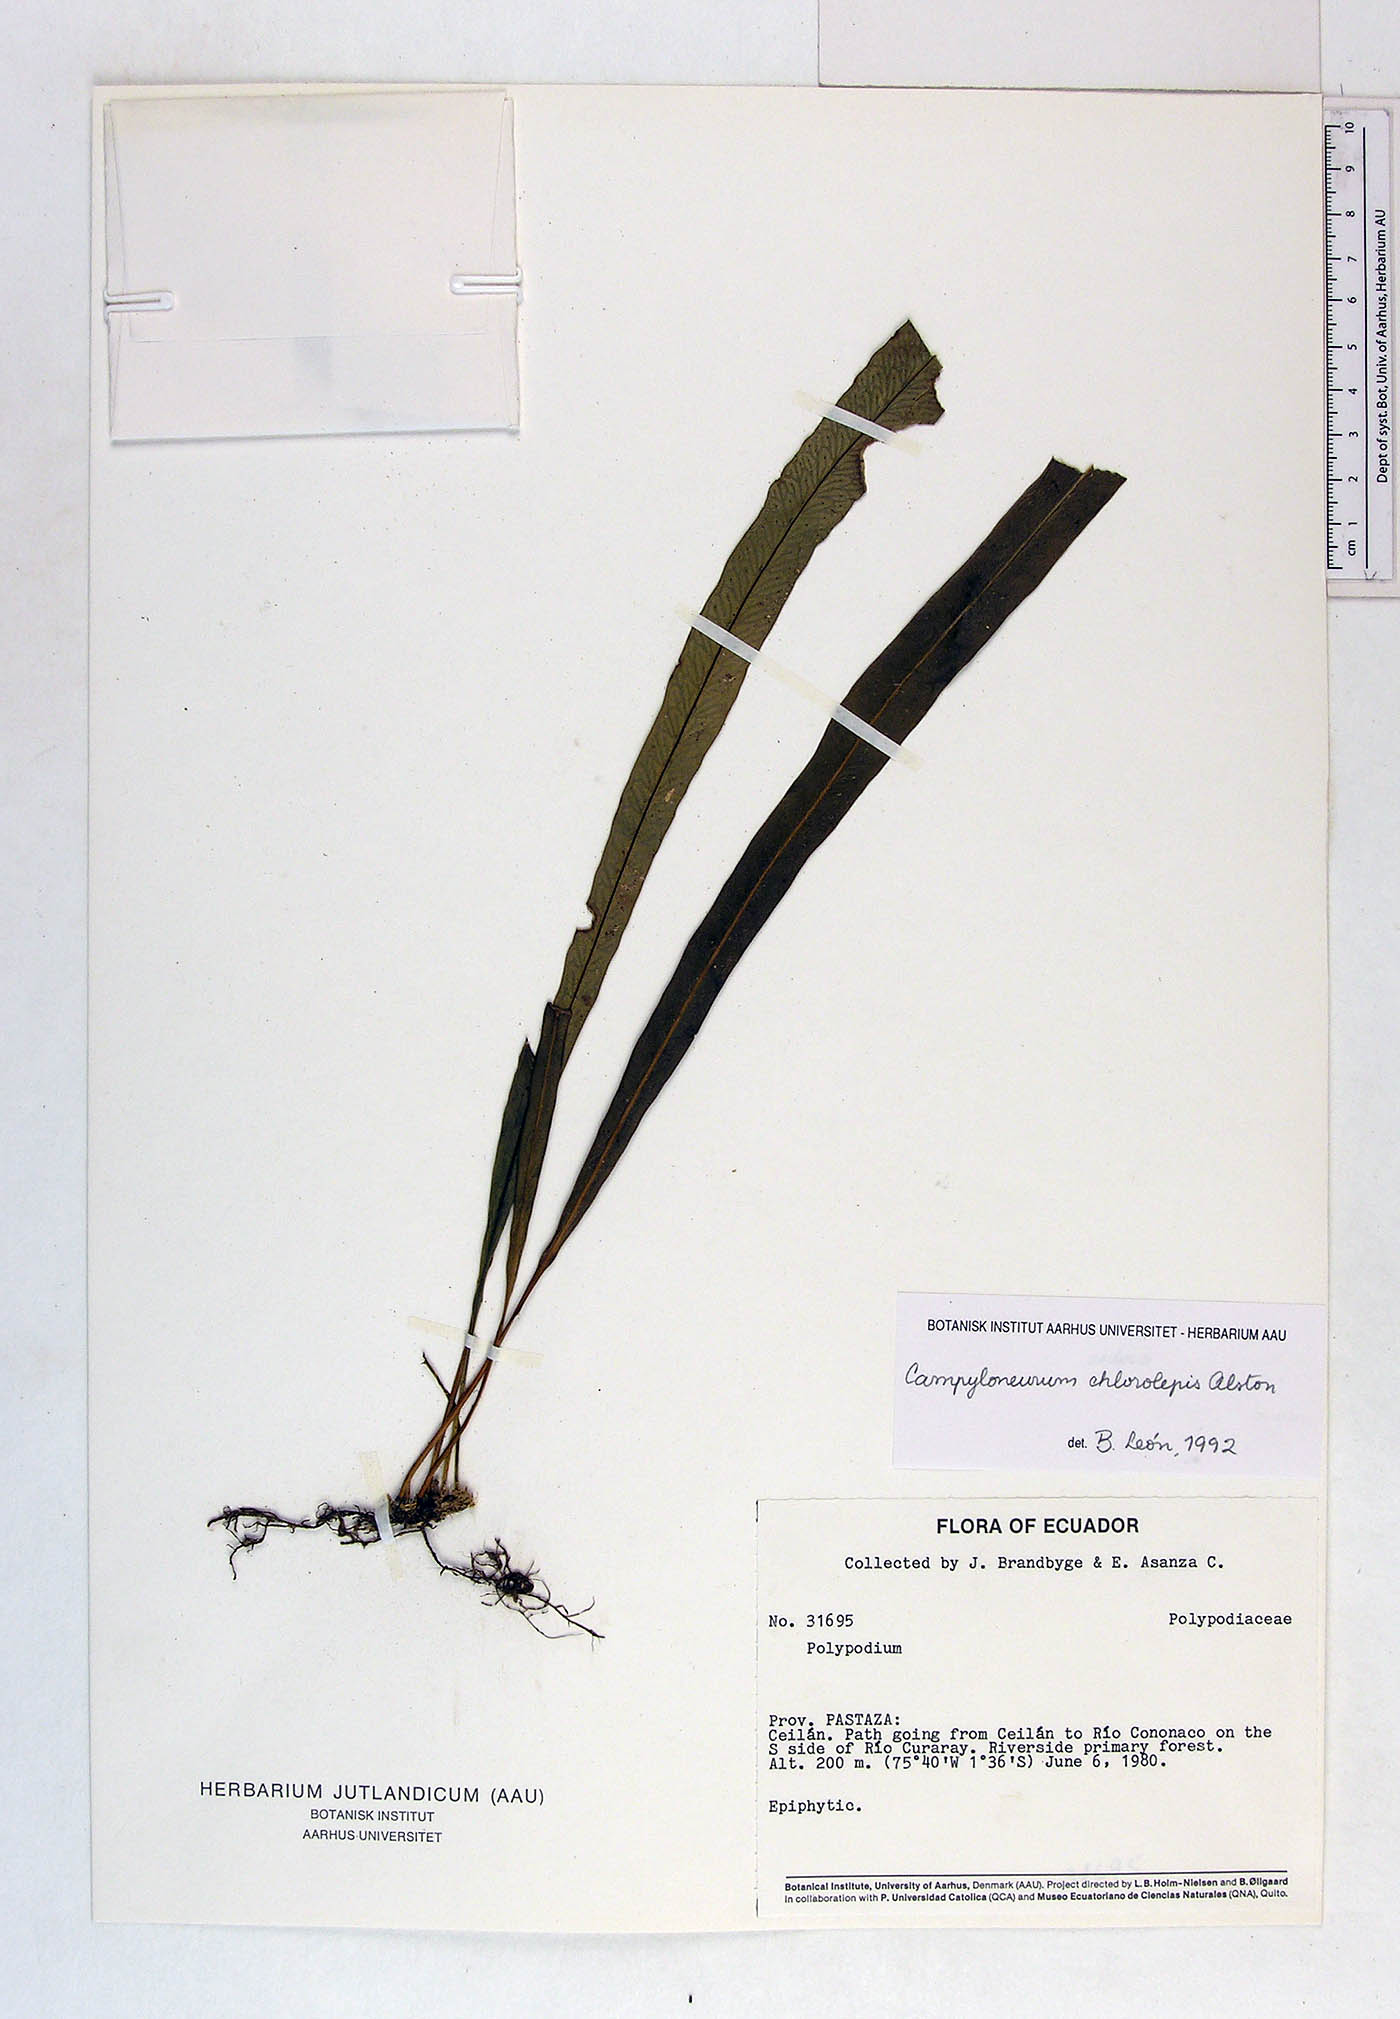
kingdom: Plantae
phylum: Tracheophyta
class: Polypodiopsida
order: Polypodiales
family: Polypodiaceae
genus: Campyloneurum
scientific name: Campyloneurum chlorolepis
